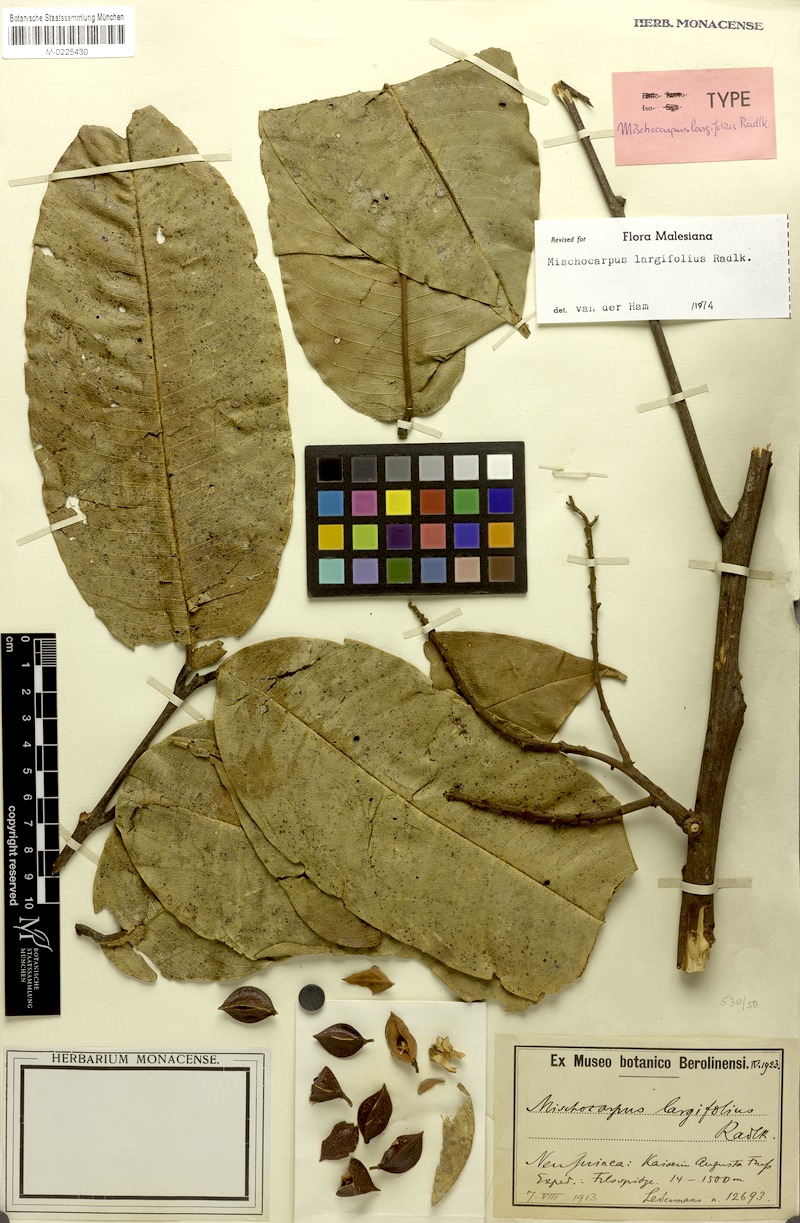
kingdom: Plantae
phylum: Tracheophyta
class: Magnoliopsida
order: Sapindales
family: Sapindaceae
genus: Mischocarpus
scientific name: Mischocarpus largifolius
